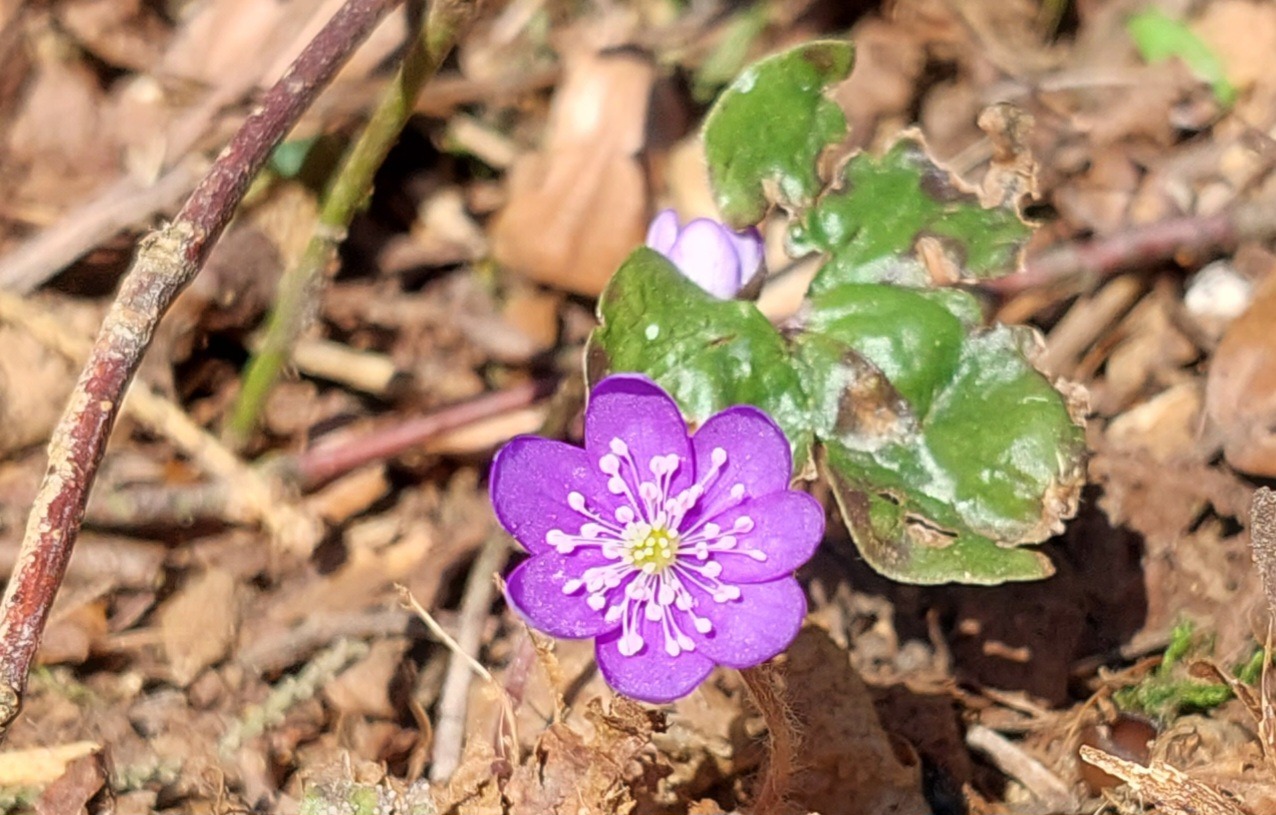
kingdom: Plantae
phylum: Tracheophyta
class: Magnoliopsida
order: Ranunculales
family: Ranunculaceae
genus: Hepatica
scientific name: Hepatica nobilis
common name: Blå anemone
